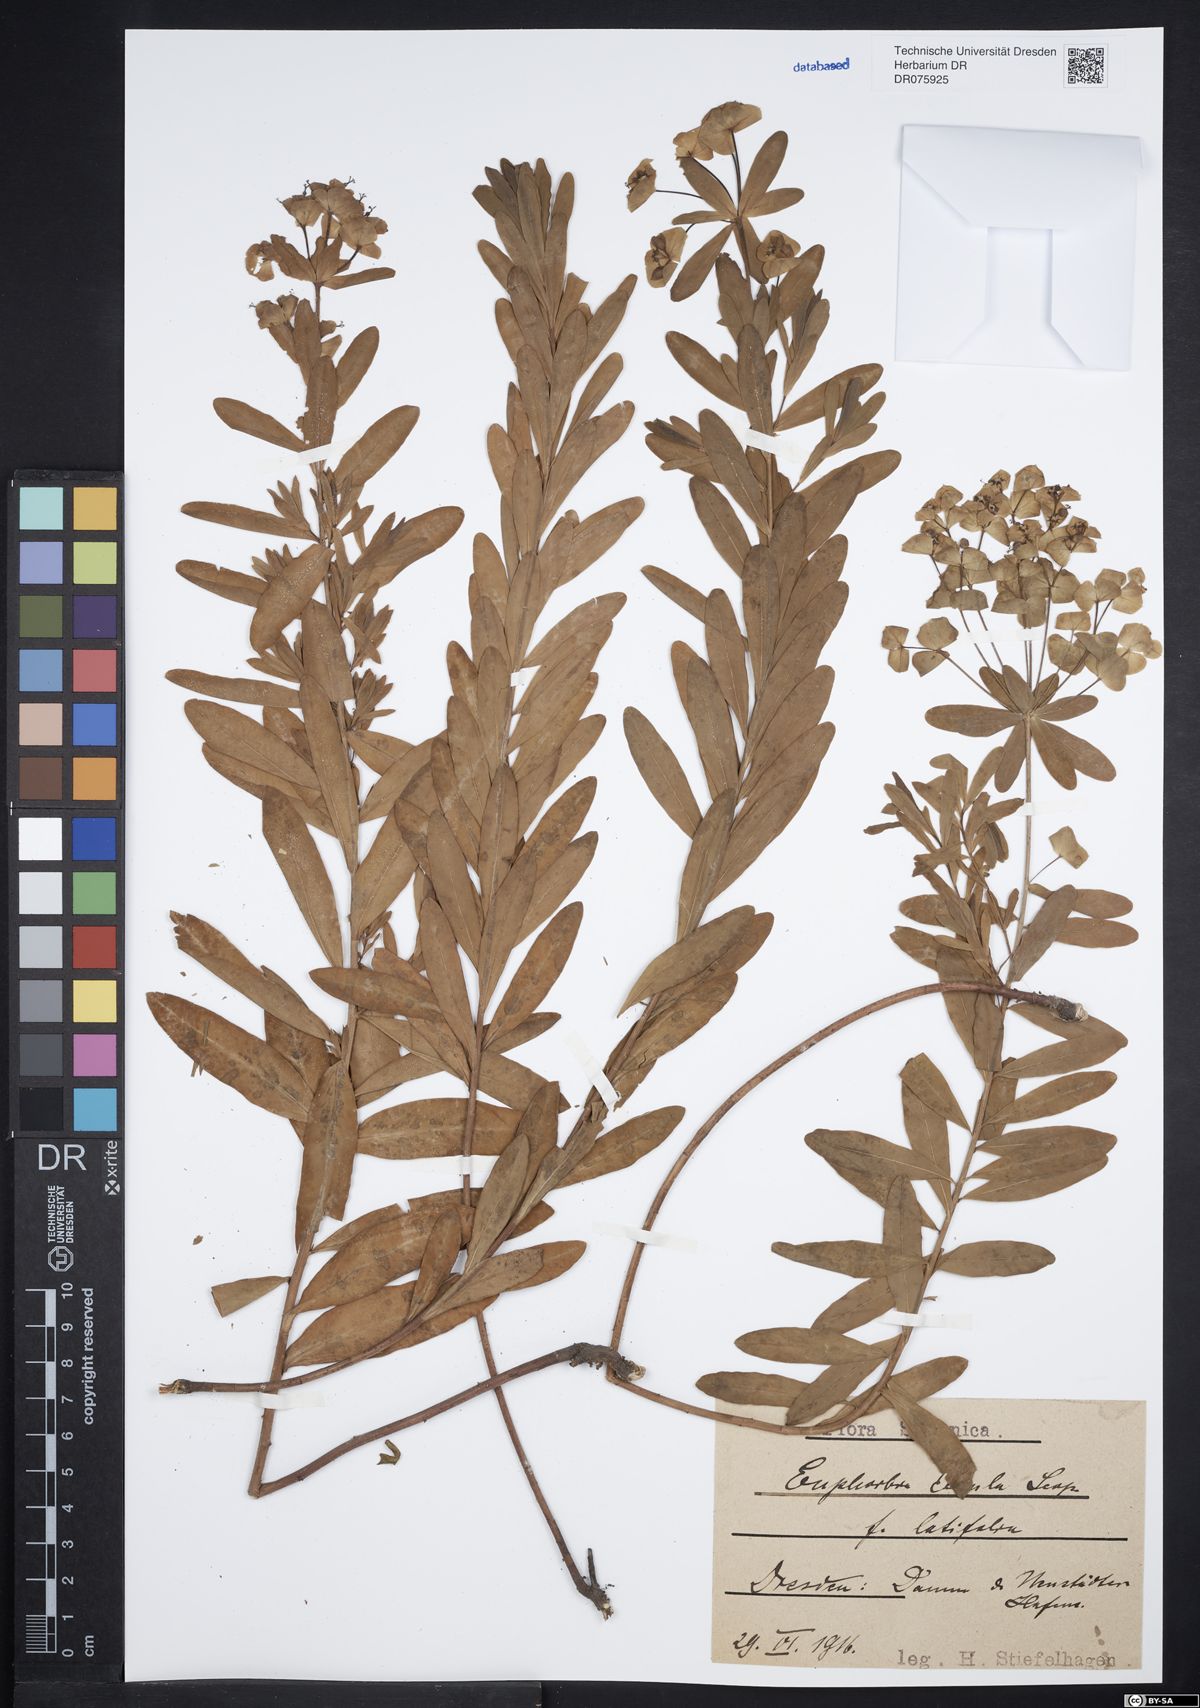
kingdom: Plantae
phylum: Tracheophyta
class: Magnoliopsida
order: Malpighiales
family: Euphorbiaceae
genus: Euphorbia
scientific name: Euphorbia esula
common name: Leafy spurge
